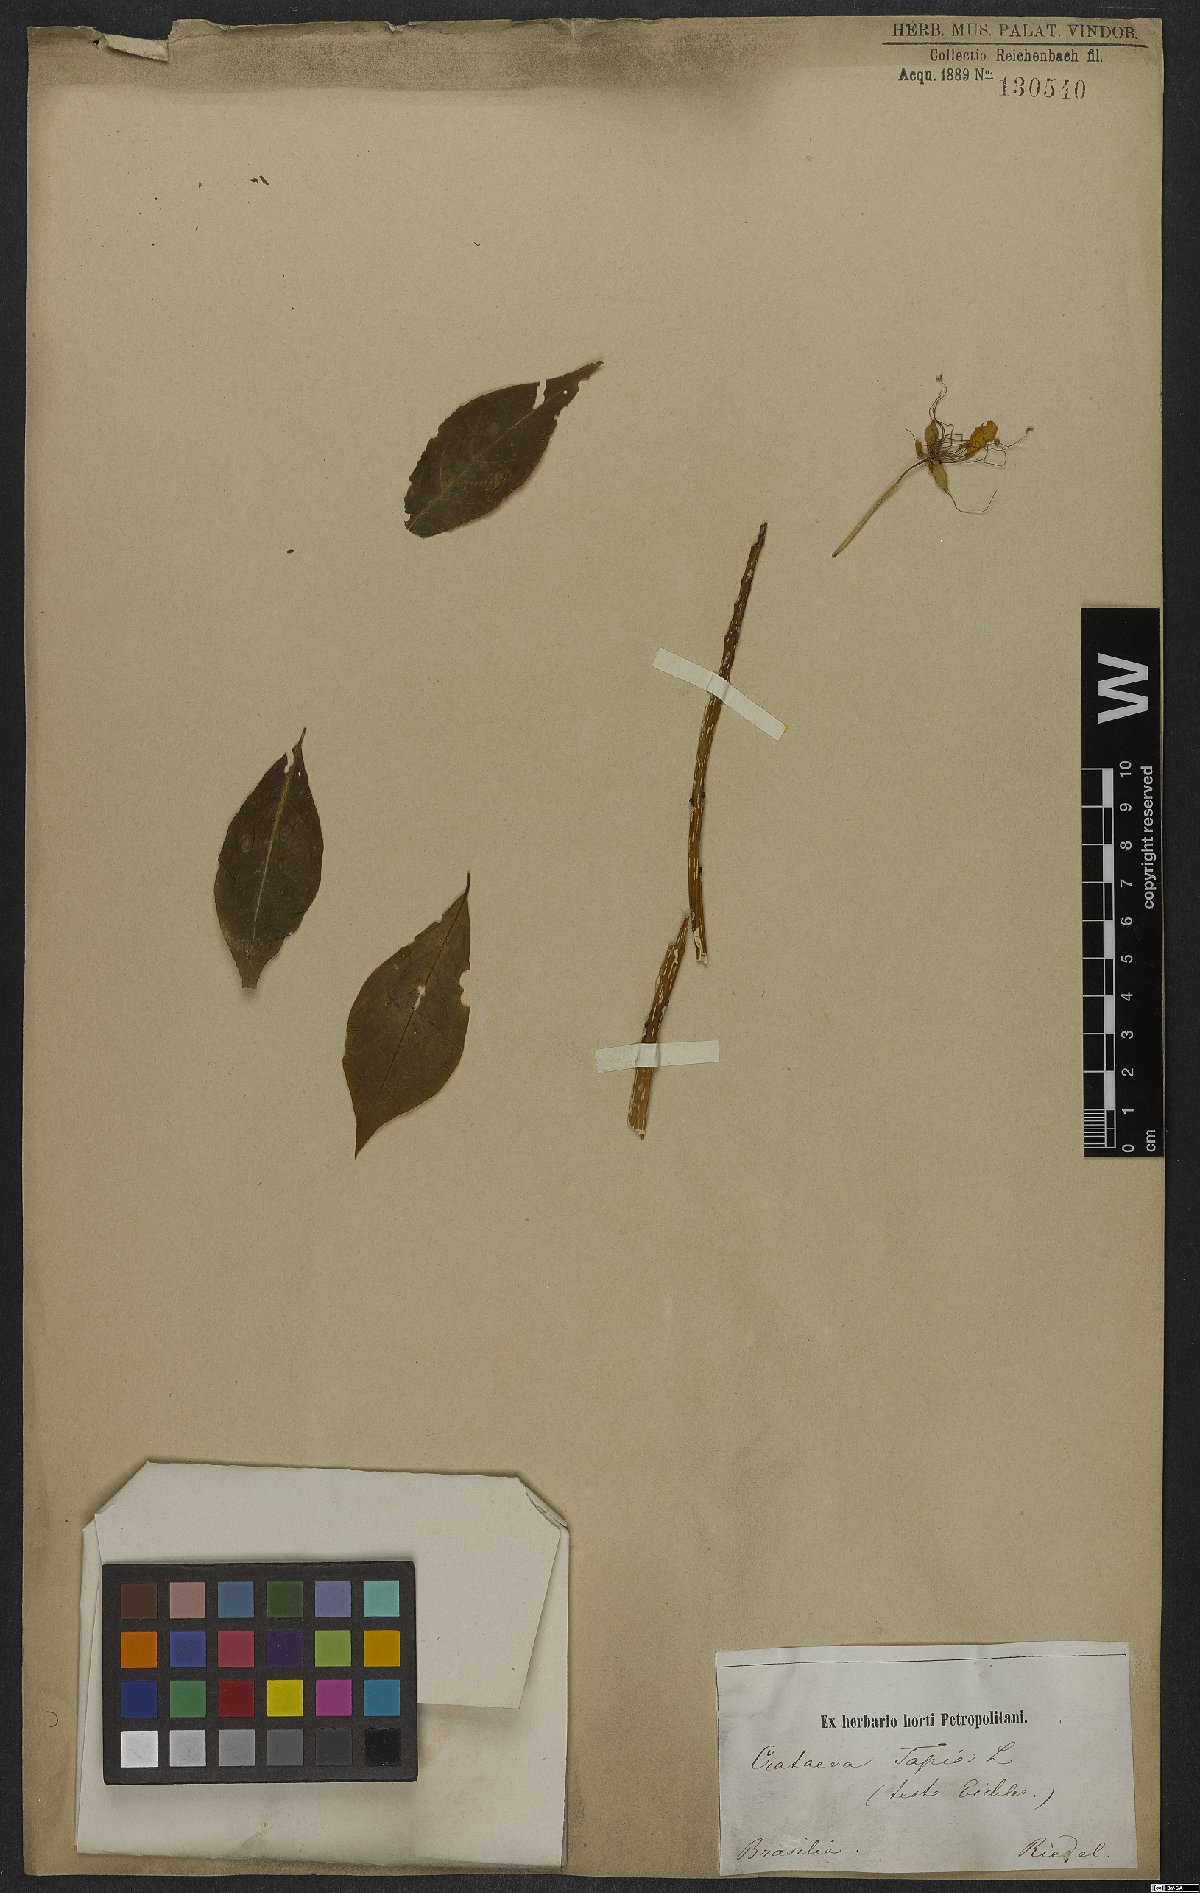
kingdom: Plantae
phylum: Tracheophyta
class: Magnoliopsida
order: Brassicales
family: Capparaceae
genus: Crateva
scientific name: Crateva tapia
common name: Garlic-pear
